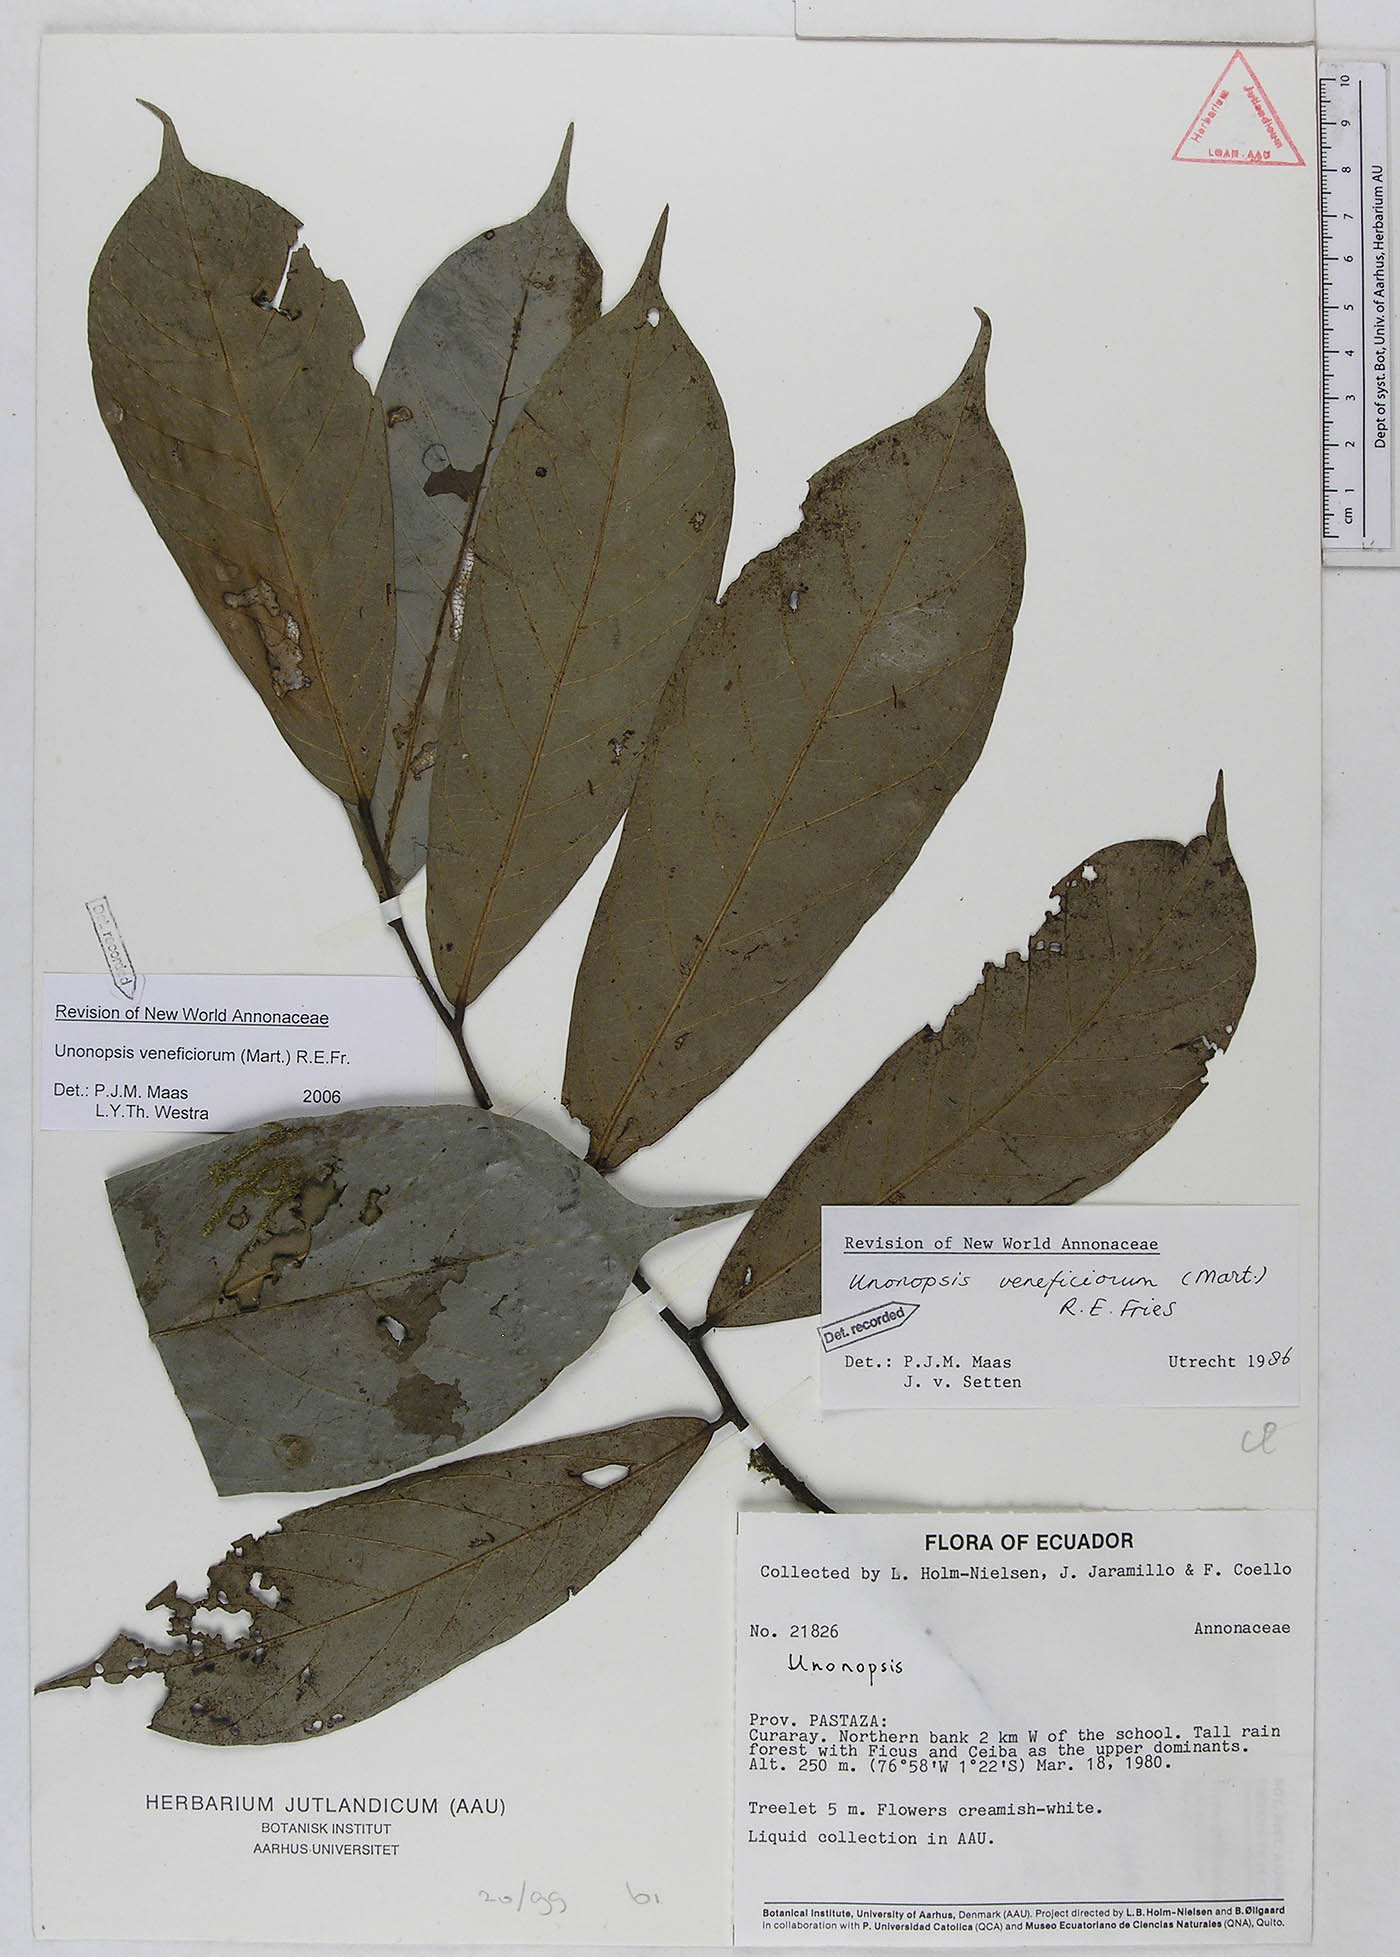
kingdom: Plantae
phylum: Tracheophyta
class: Magnoliopsida
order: Magnoliales
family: Annonaceae
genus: Unonopsis
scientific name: Unonopsis veneficiorum
